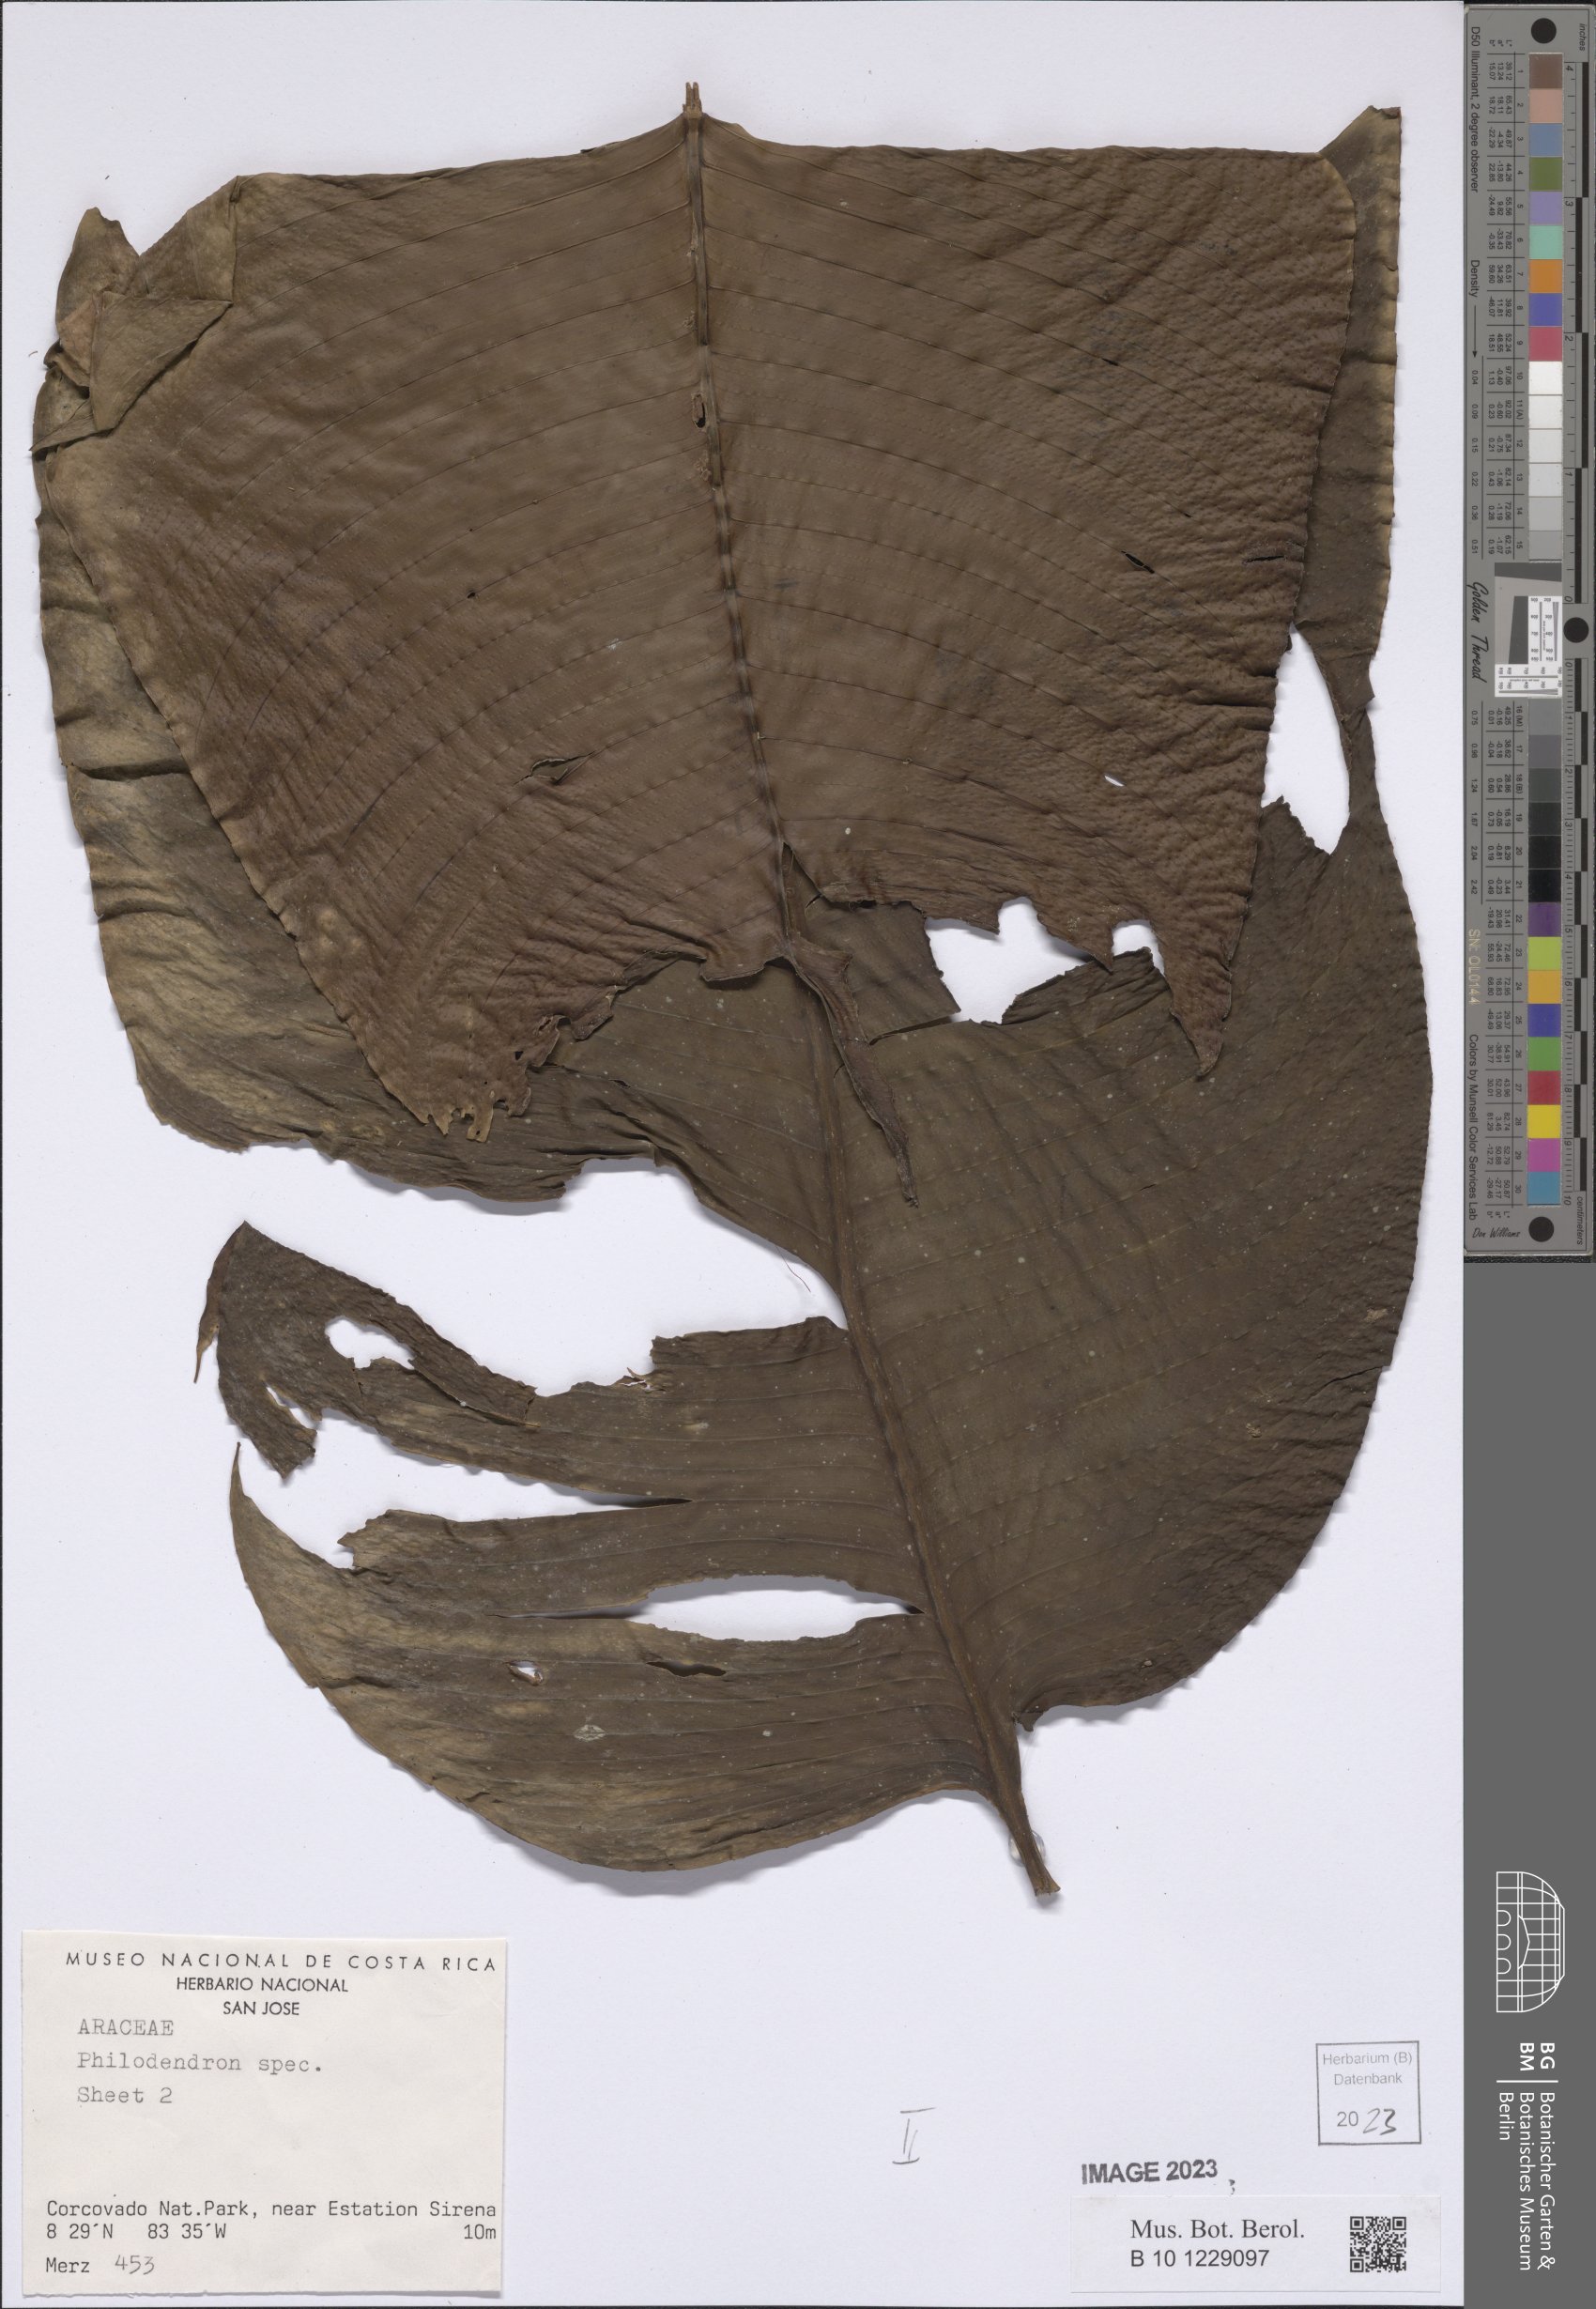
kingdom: Plantae
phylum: Tracheophyta
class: Liliopsida
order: Alismatales
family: Araceae
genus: Rhodospatha
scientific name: Rhodospatha wendlandii
